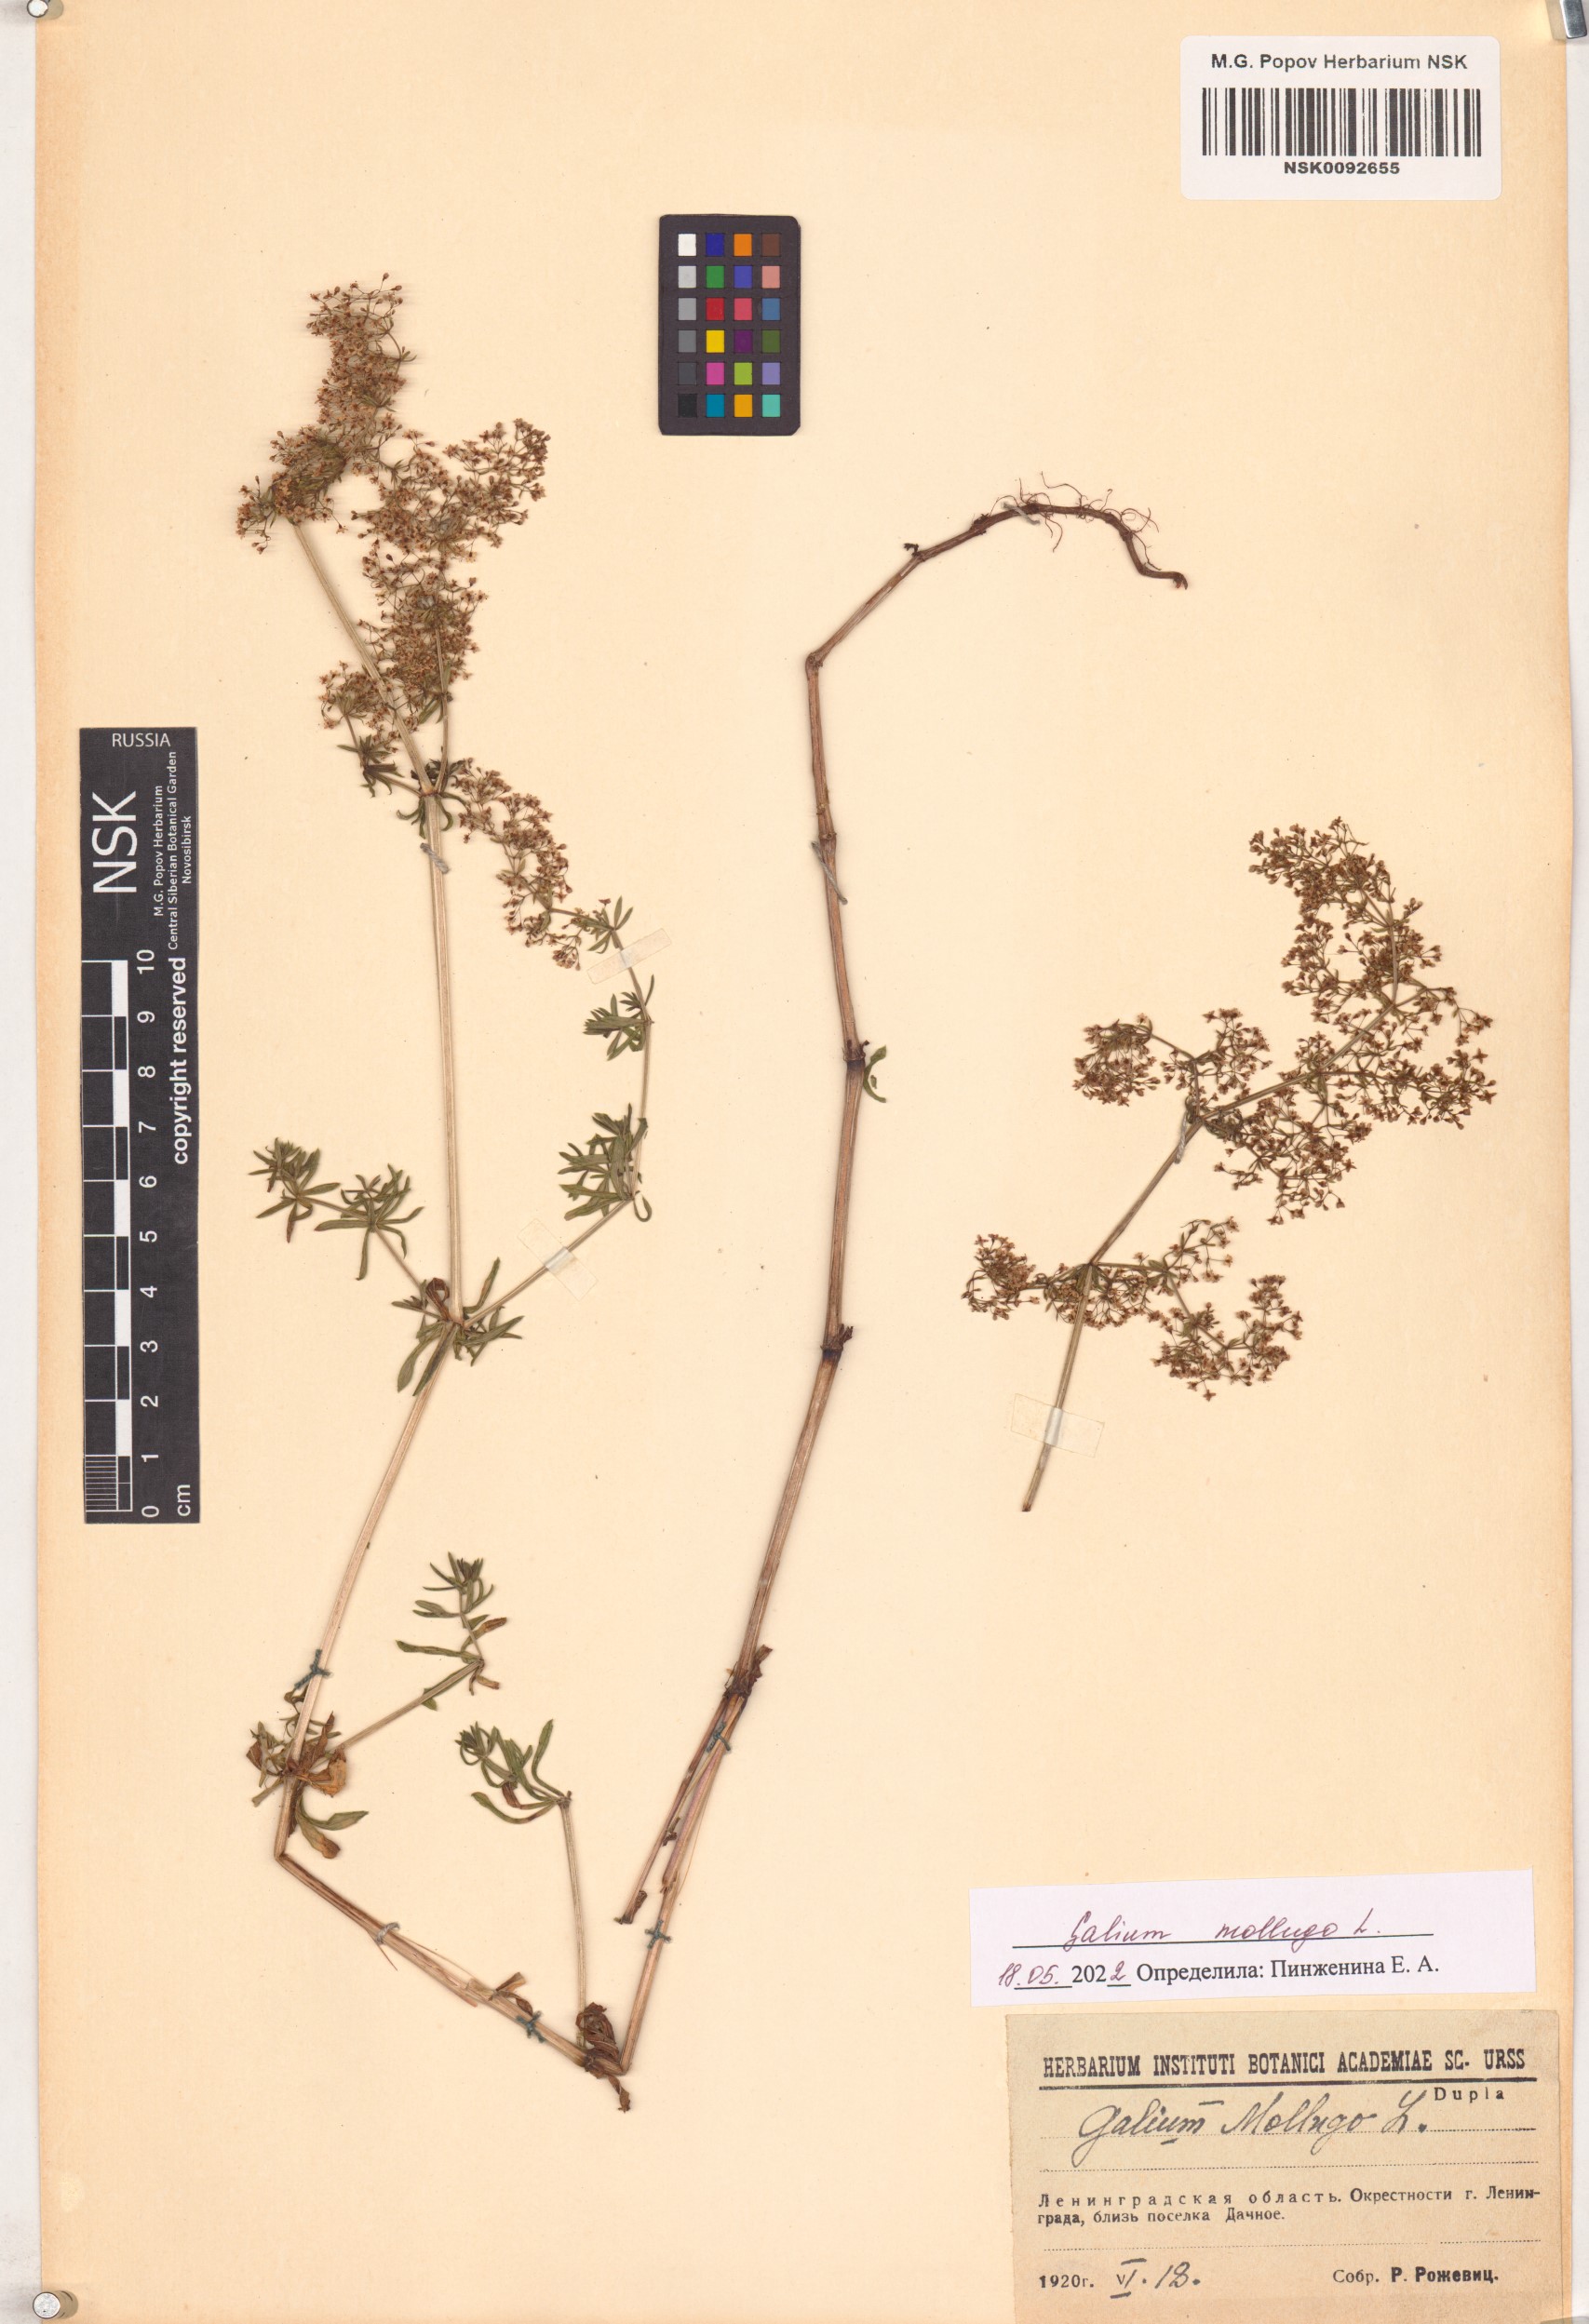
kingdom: Plantae
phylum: Tracheophyta
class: Magnoliopsida
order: Gentianales
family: Rubiaceae
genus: Galium
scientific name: Galium mollugo
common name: Hedge bedstraw
